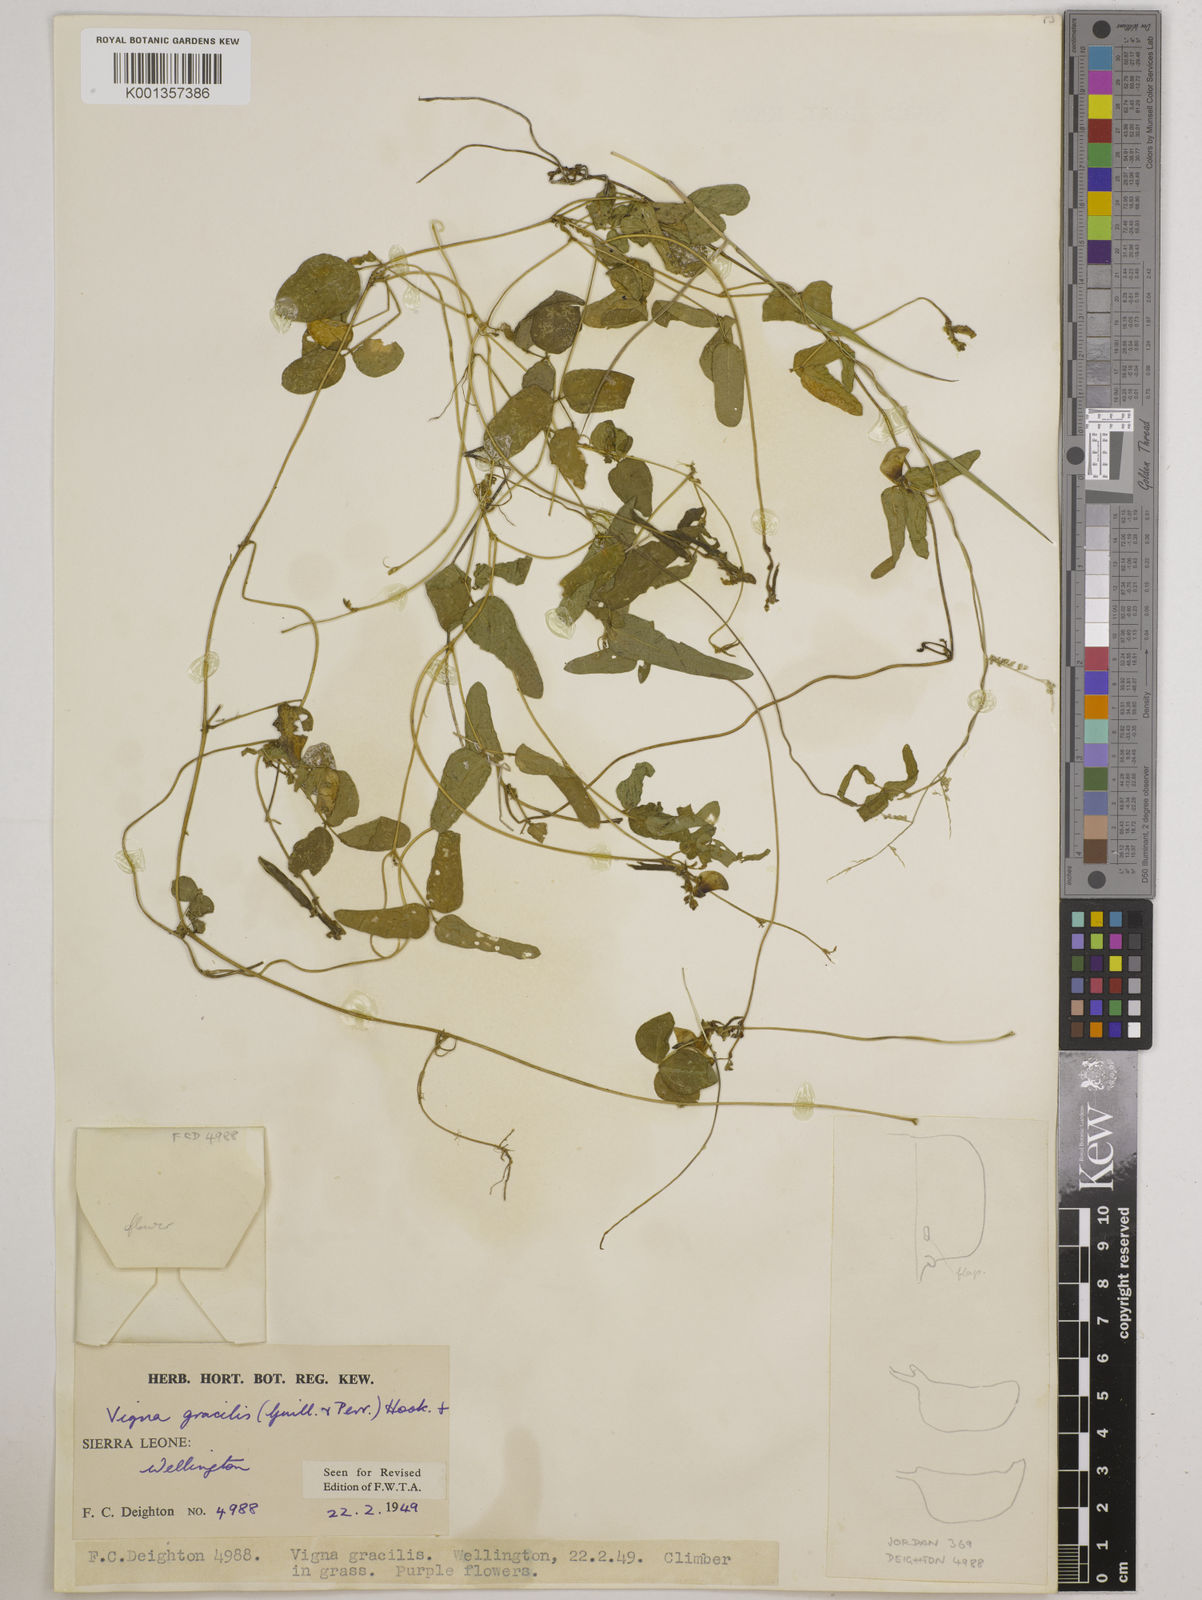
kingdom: Plantae
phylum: Tracheophyta
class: Magnoliopsida
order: Fabales
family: Fabaceae
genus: Vigna
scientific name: Vigna gracilis
